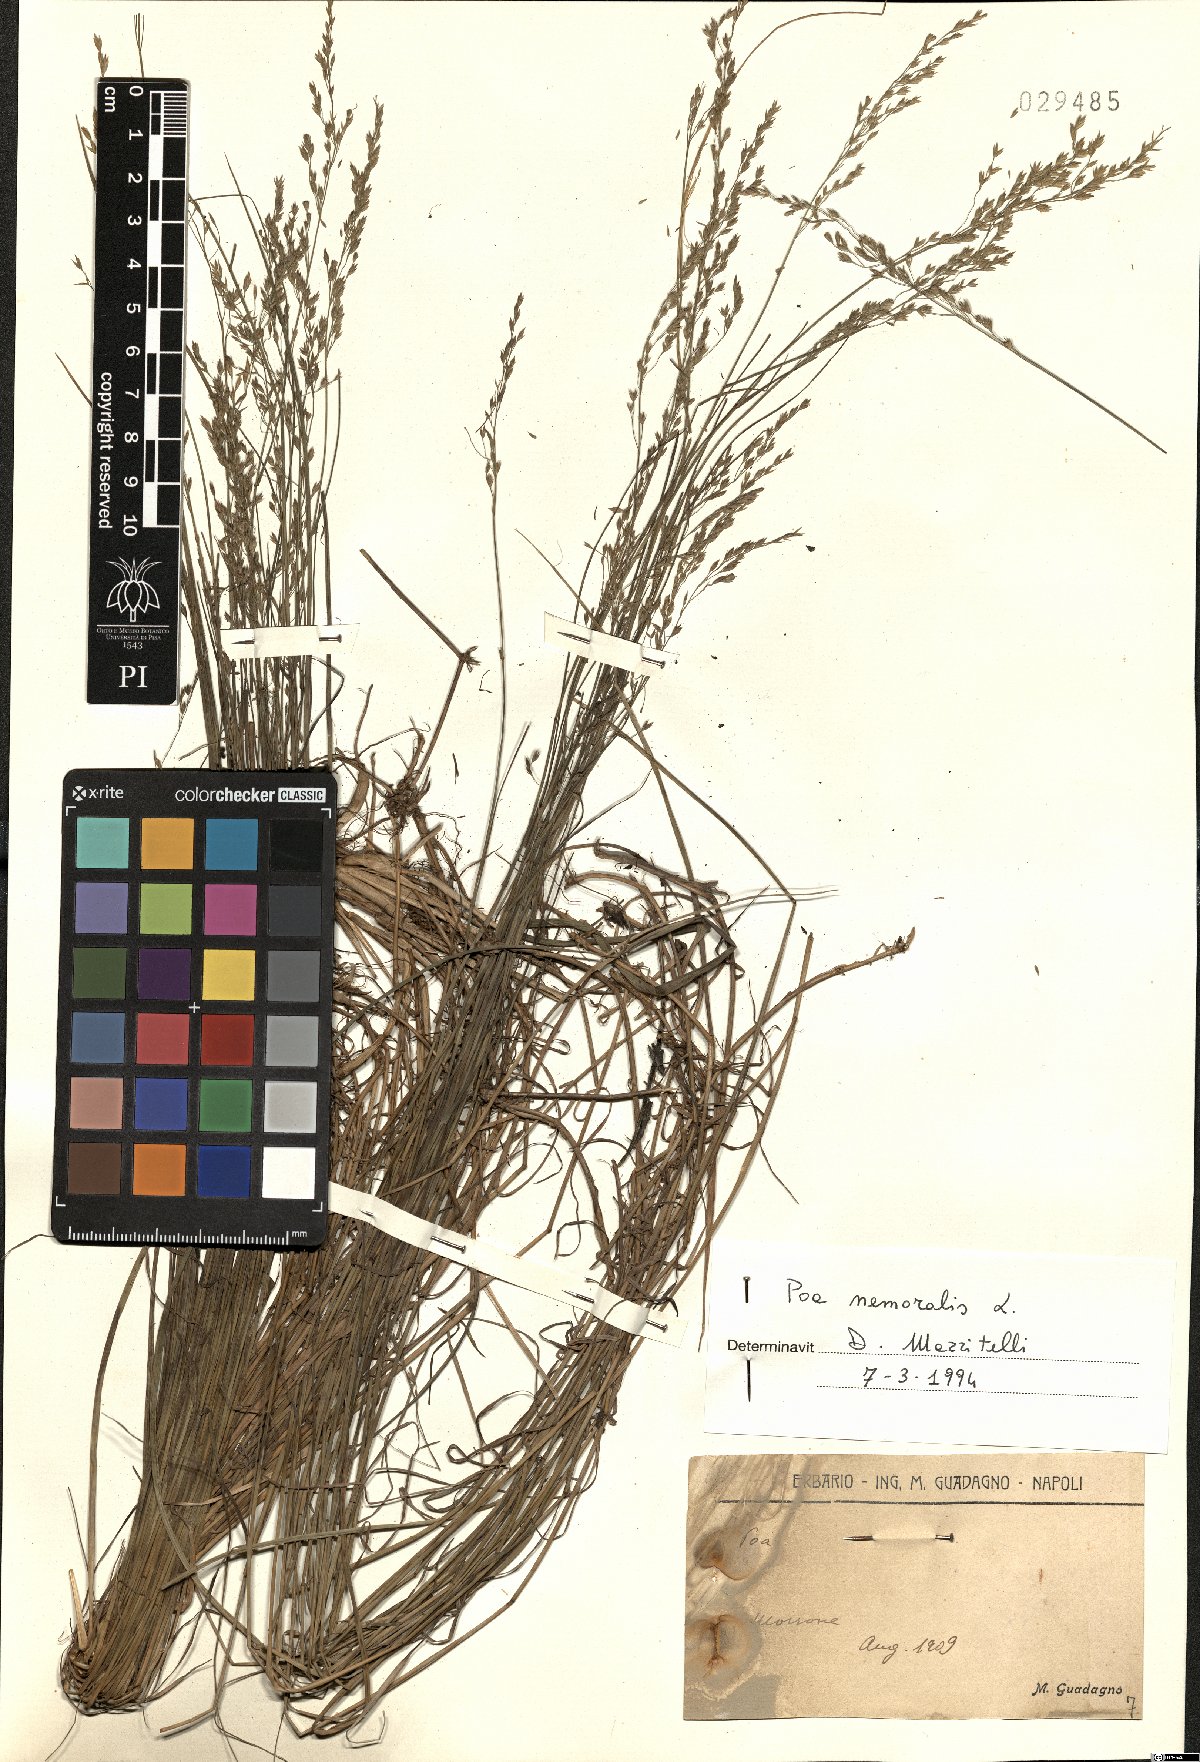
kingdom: Plantae
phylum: Tracheophyta
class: Liliopsida
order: Poales
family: Poaceae
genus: Poa
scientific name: Poa nemoralis
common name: Wood bluegrass
